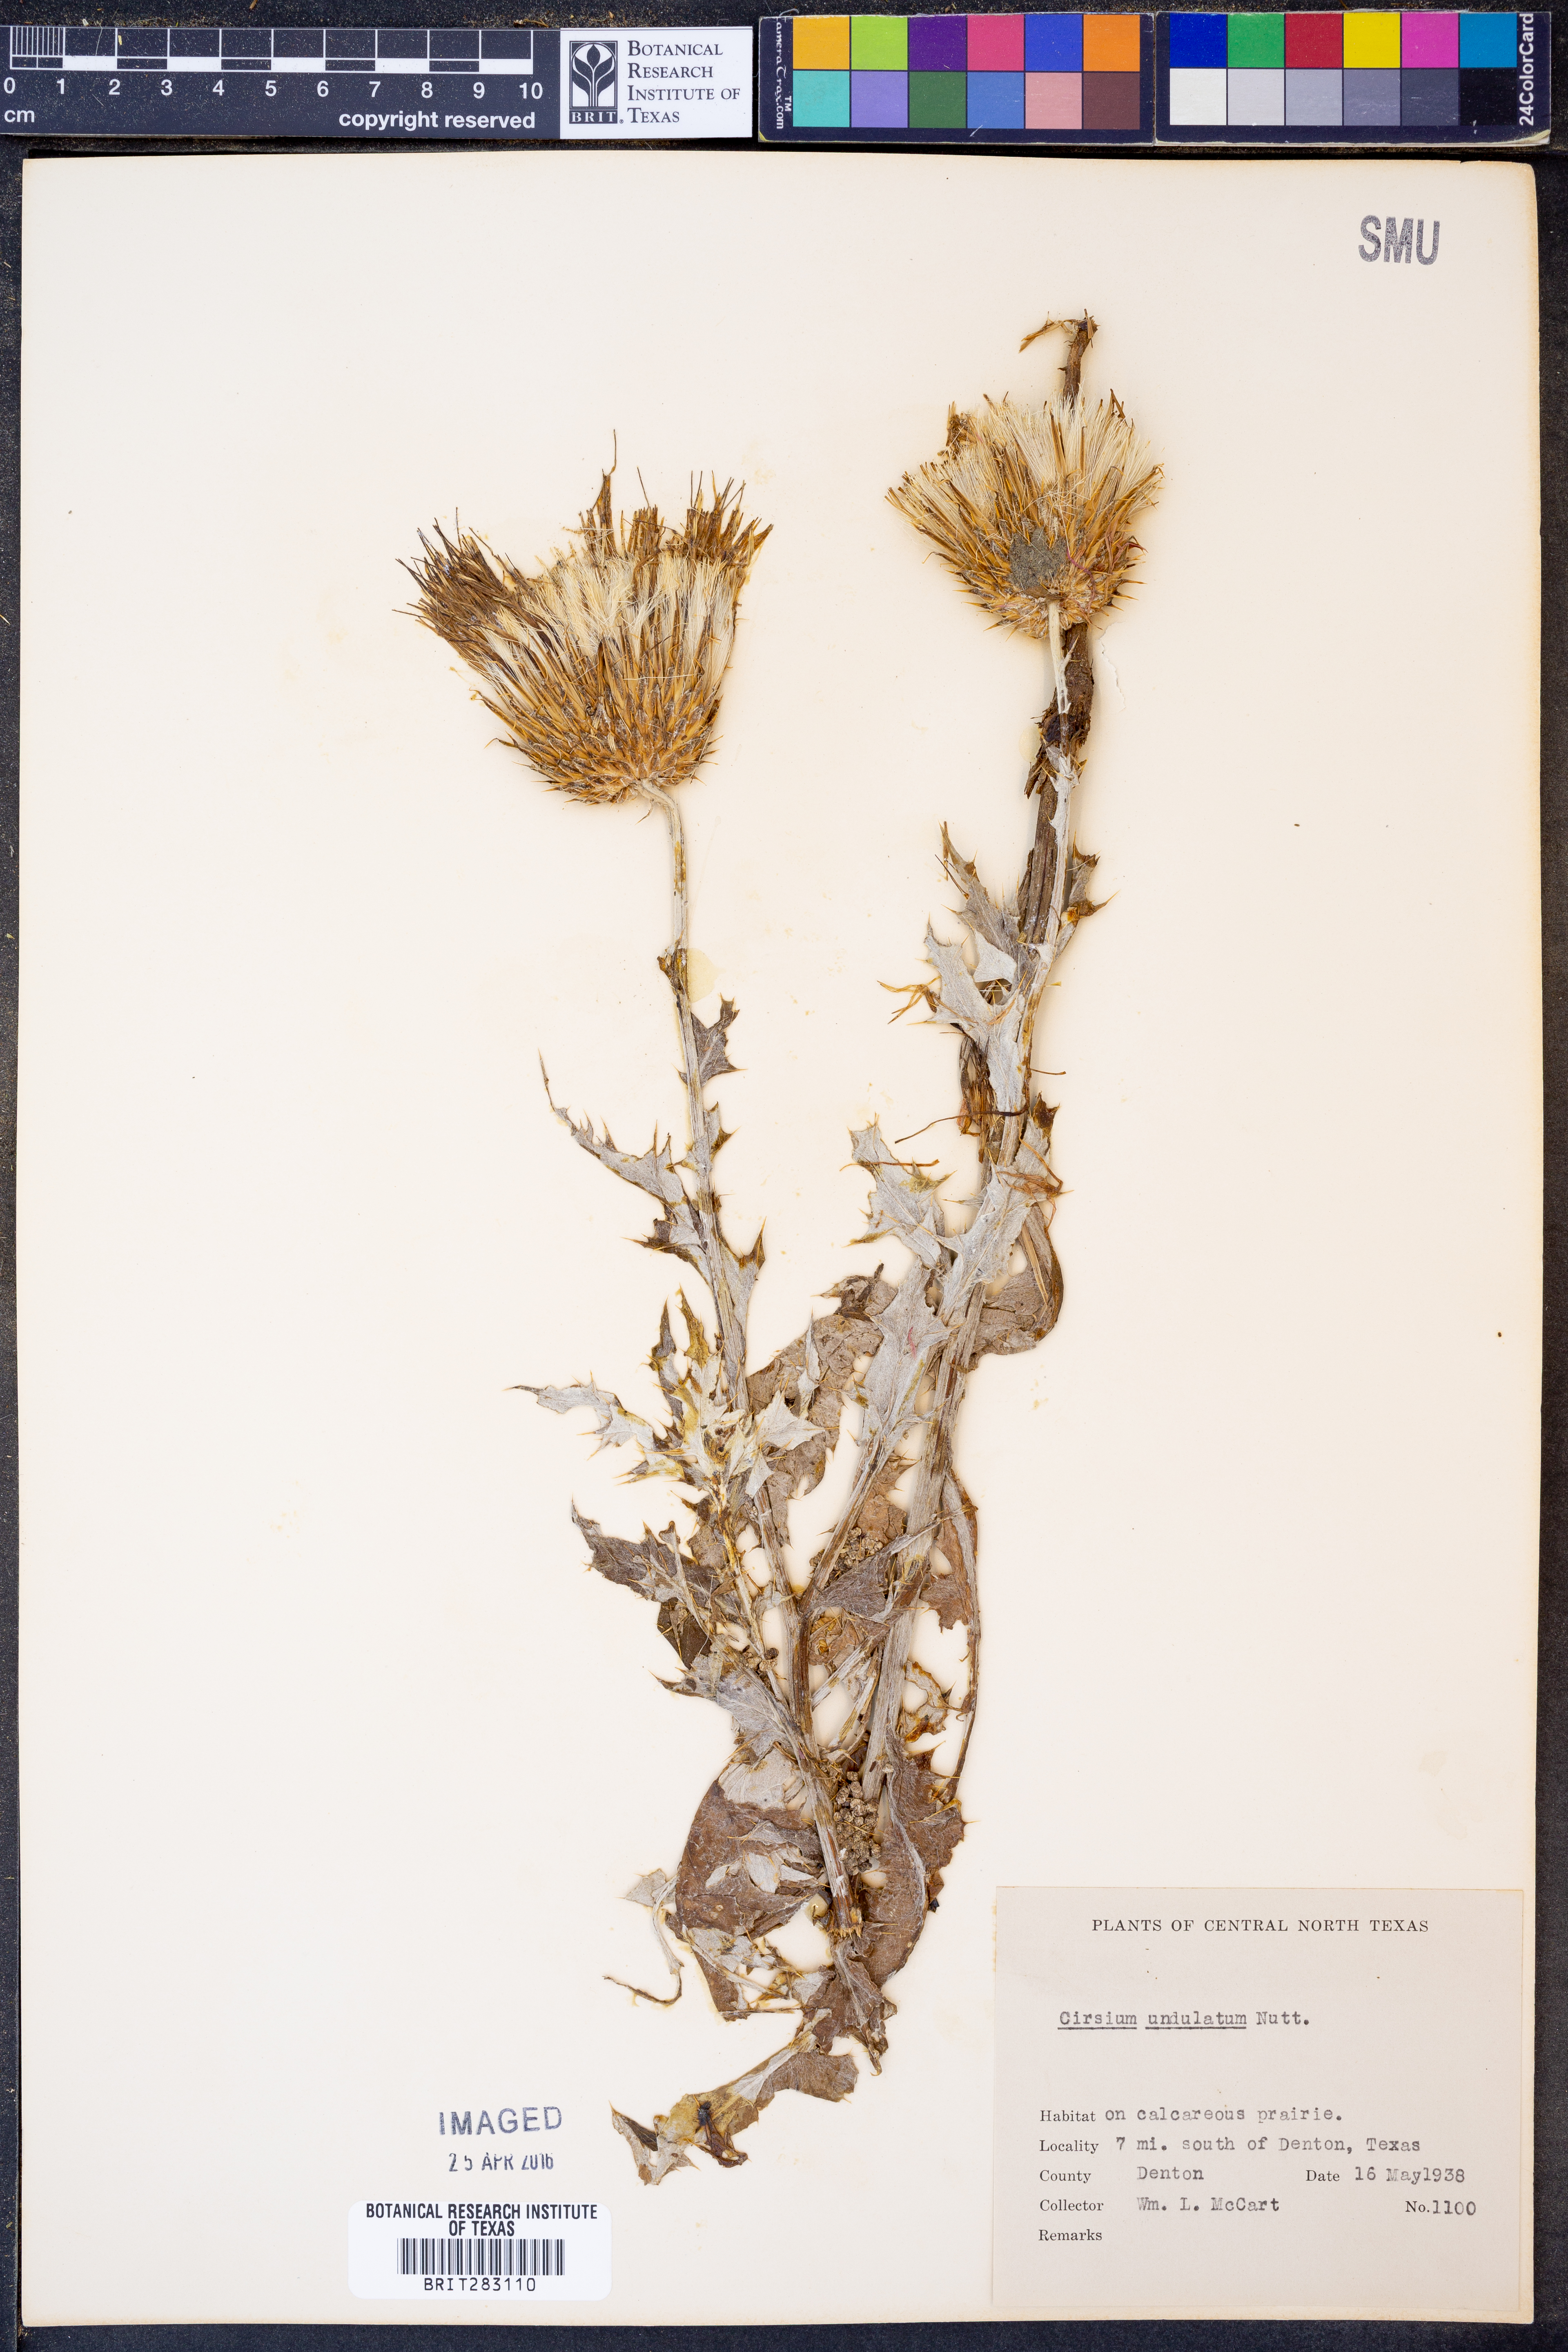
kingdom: Plantae
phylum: Tracheophyta
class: Magnoliopsida
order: Asterales
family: Asteraceae
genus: Cirsium
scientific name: Cirsium undulatum
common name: Pasture thistle
